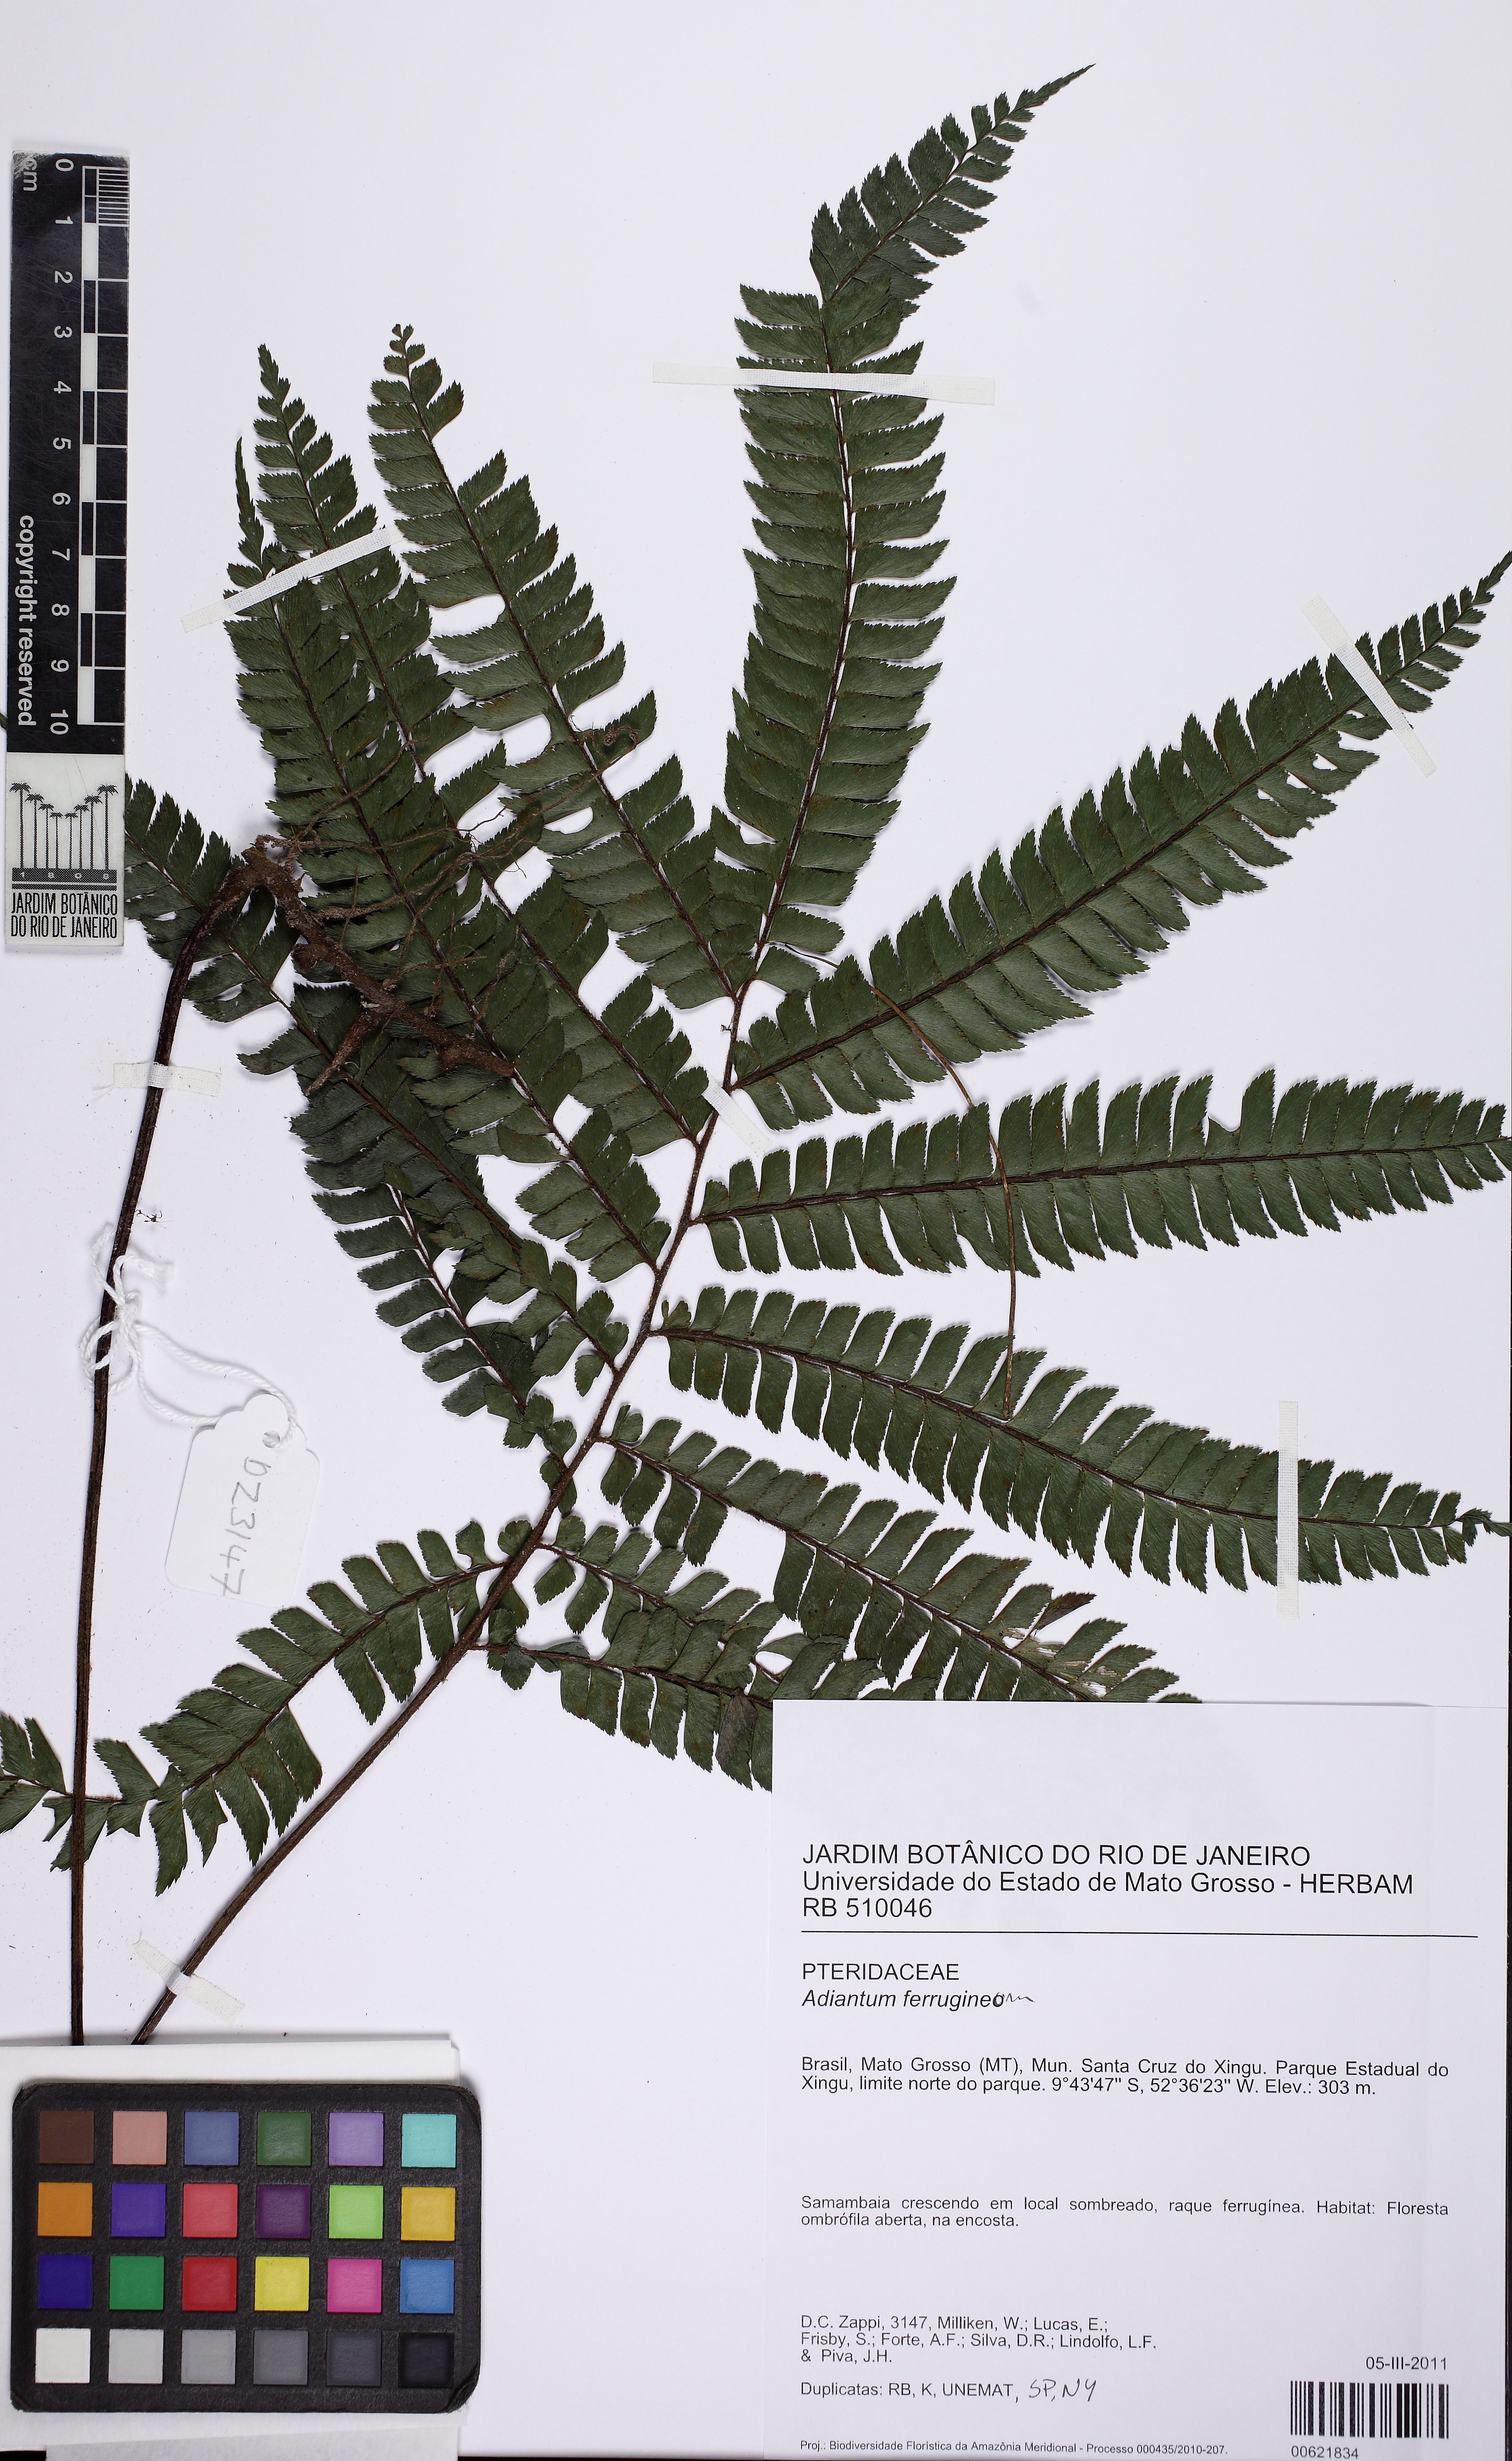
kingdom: Plantae
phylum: Tracheophyta
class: Polypodiopsida
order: Polypodiales
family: Pteridaceae
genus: Adiantum
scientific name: Adiantum tetraphyllum
